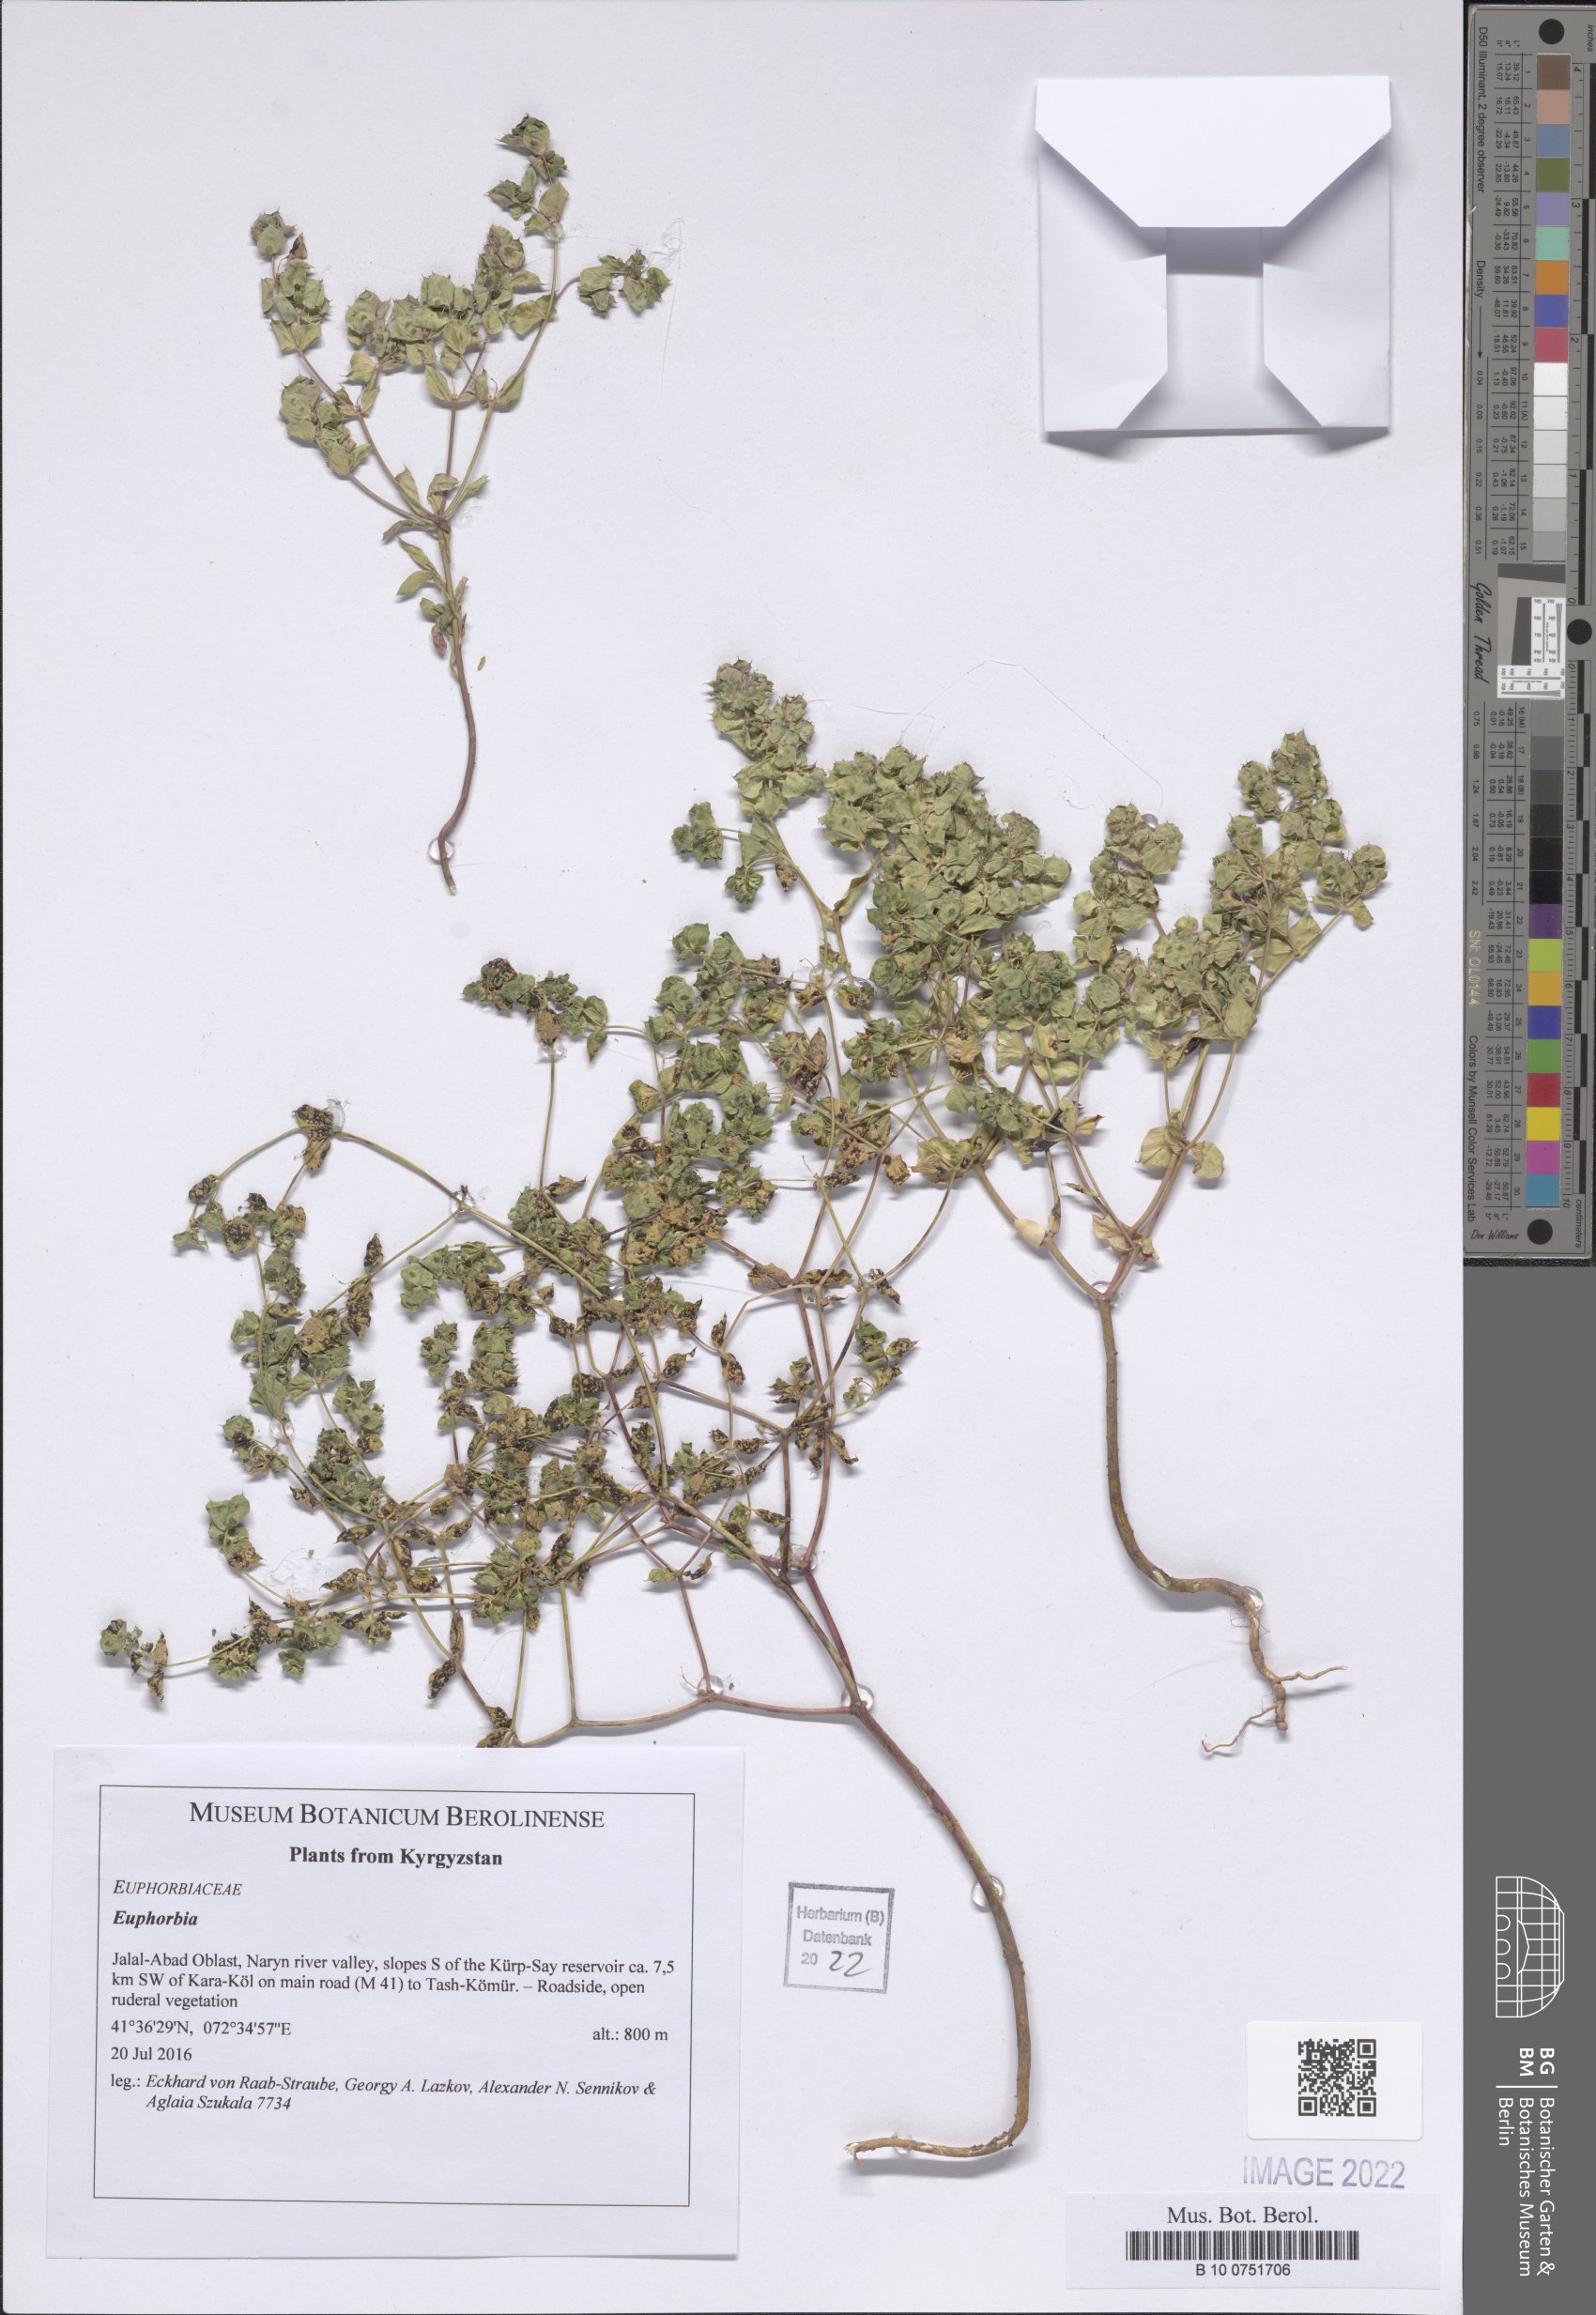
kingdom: Plantae
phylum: Tracheophyta
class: Magnoliopsida
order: Malpighiales
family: Euphorbiaceae
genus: Euphorbia
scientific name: Euphorbia
